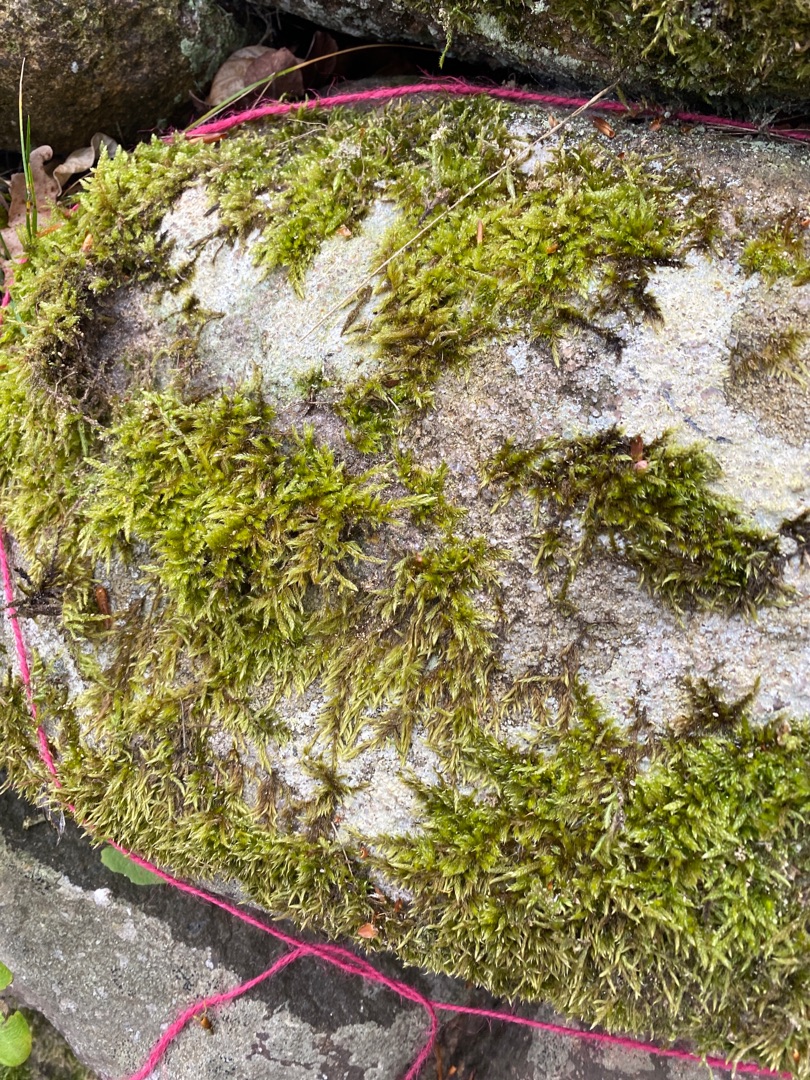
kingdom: Plantae
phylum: Bryophyta
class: Bryopsida
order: Hypnales
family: Hypnaceae
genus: Hypnum
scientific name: Hypnum cupressiforme
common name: Almindelig cypresmos
